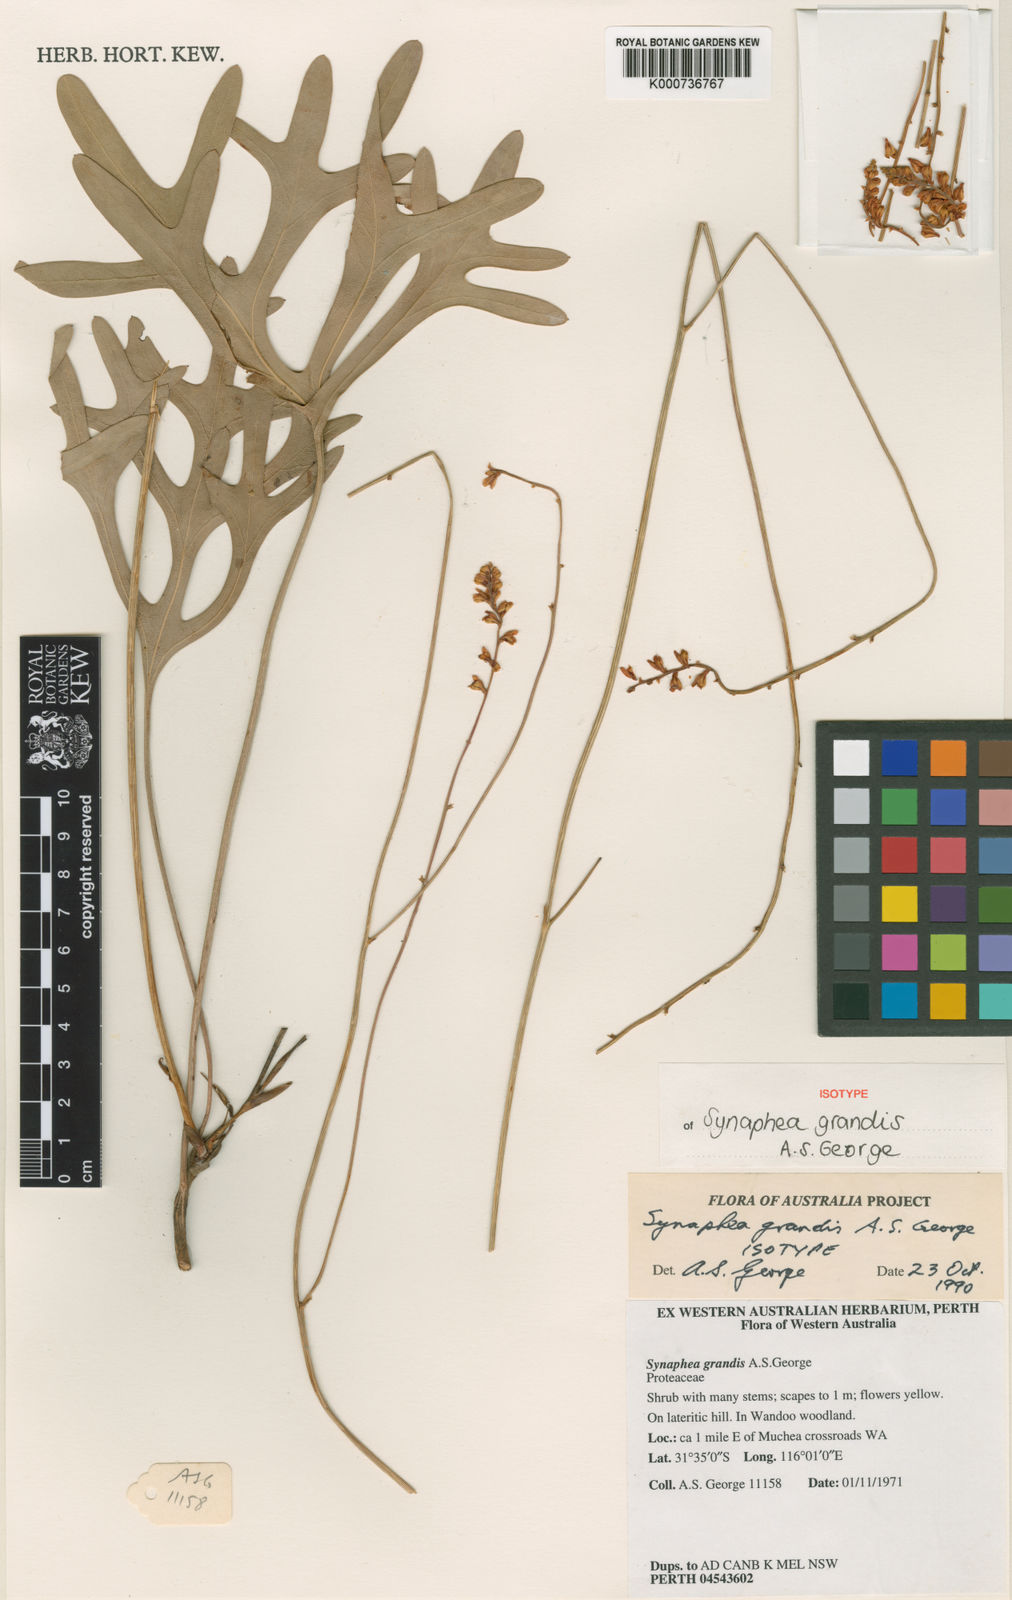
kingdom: Plantae
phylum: Tracheophyta
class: Magnoliopsida
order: Proteales
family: Proteaceae
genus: Synaphea
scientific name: Synaphea grandis
